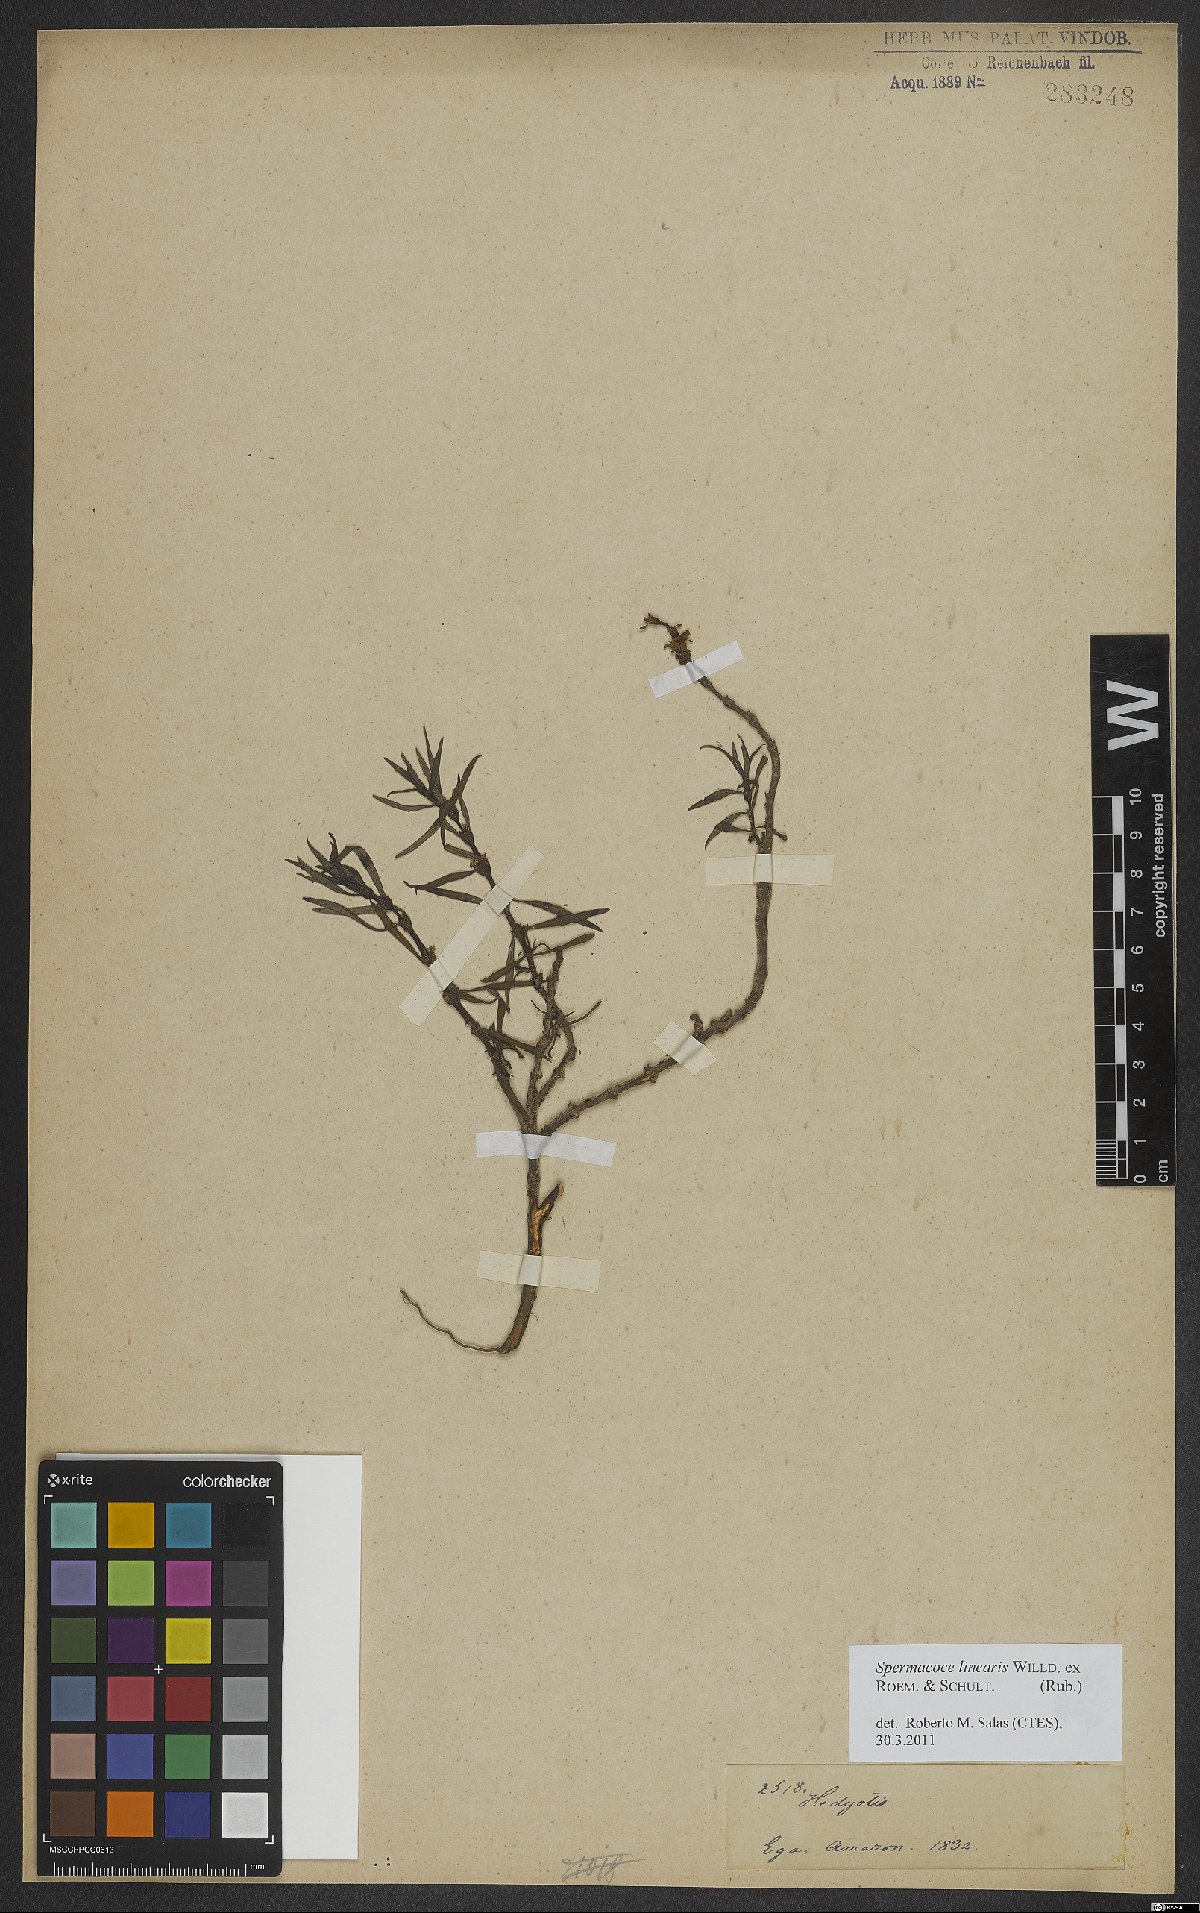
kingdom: Plantae
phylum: Tracheophyta
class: Magnoliopsida
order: Gentianales
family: Rubiaceae
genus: Spermacoce
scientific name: Spermacoce hyssopifolia
